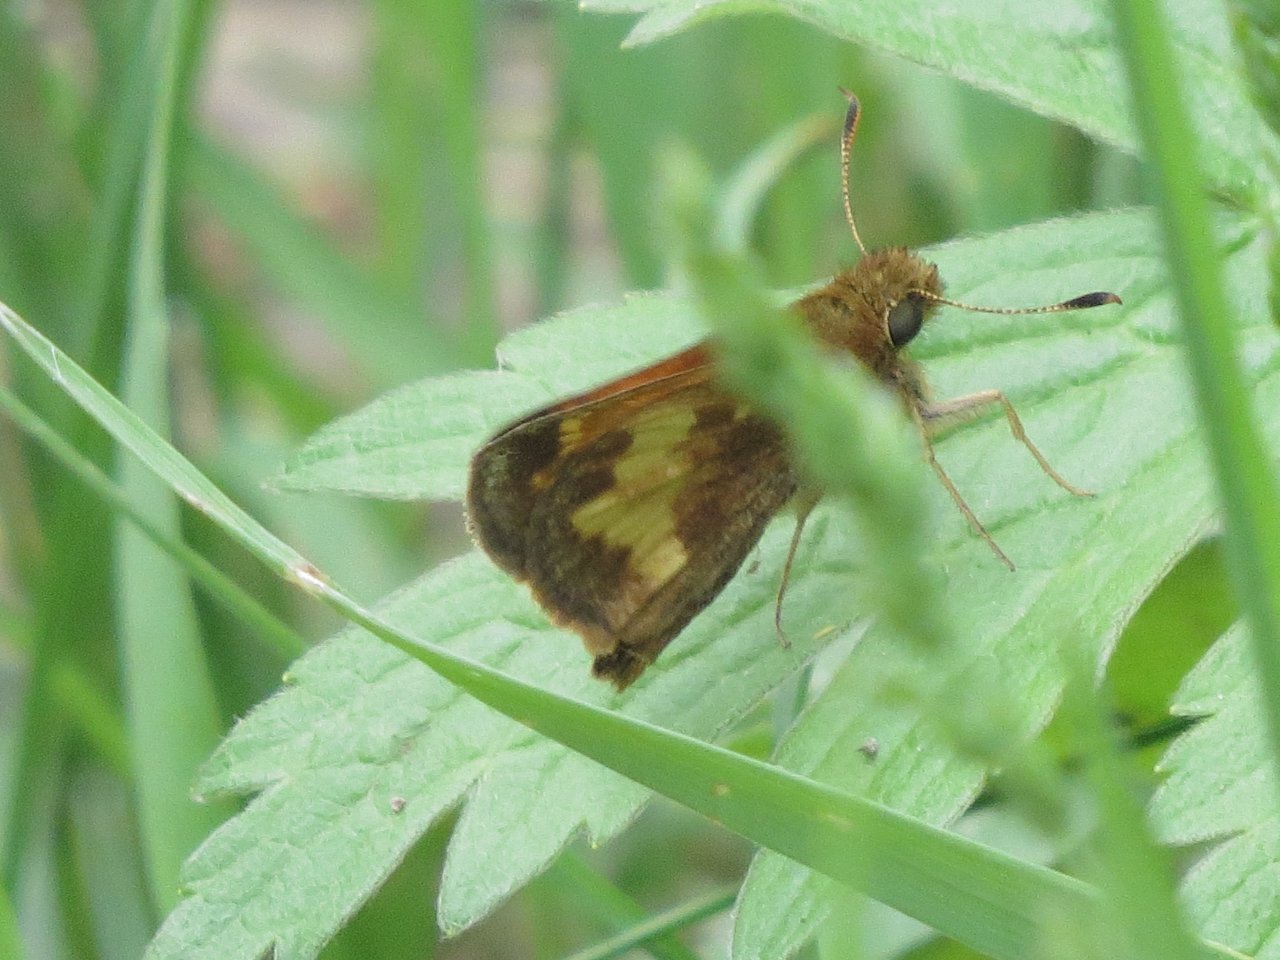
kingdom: Animalia
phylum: Arthropoda
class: Insecta
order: Lepidoptera
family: Hesperiidae
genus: Polites
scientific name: Polites coras
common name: Peck's Skipper
